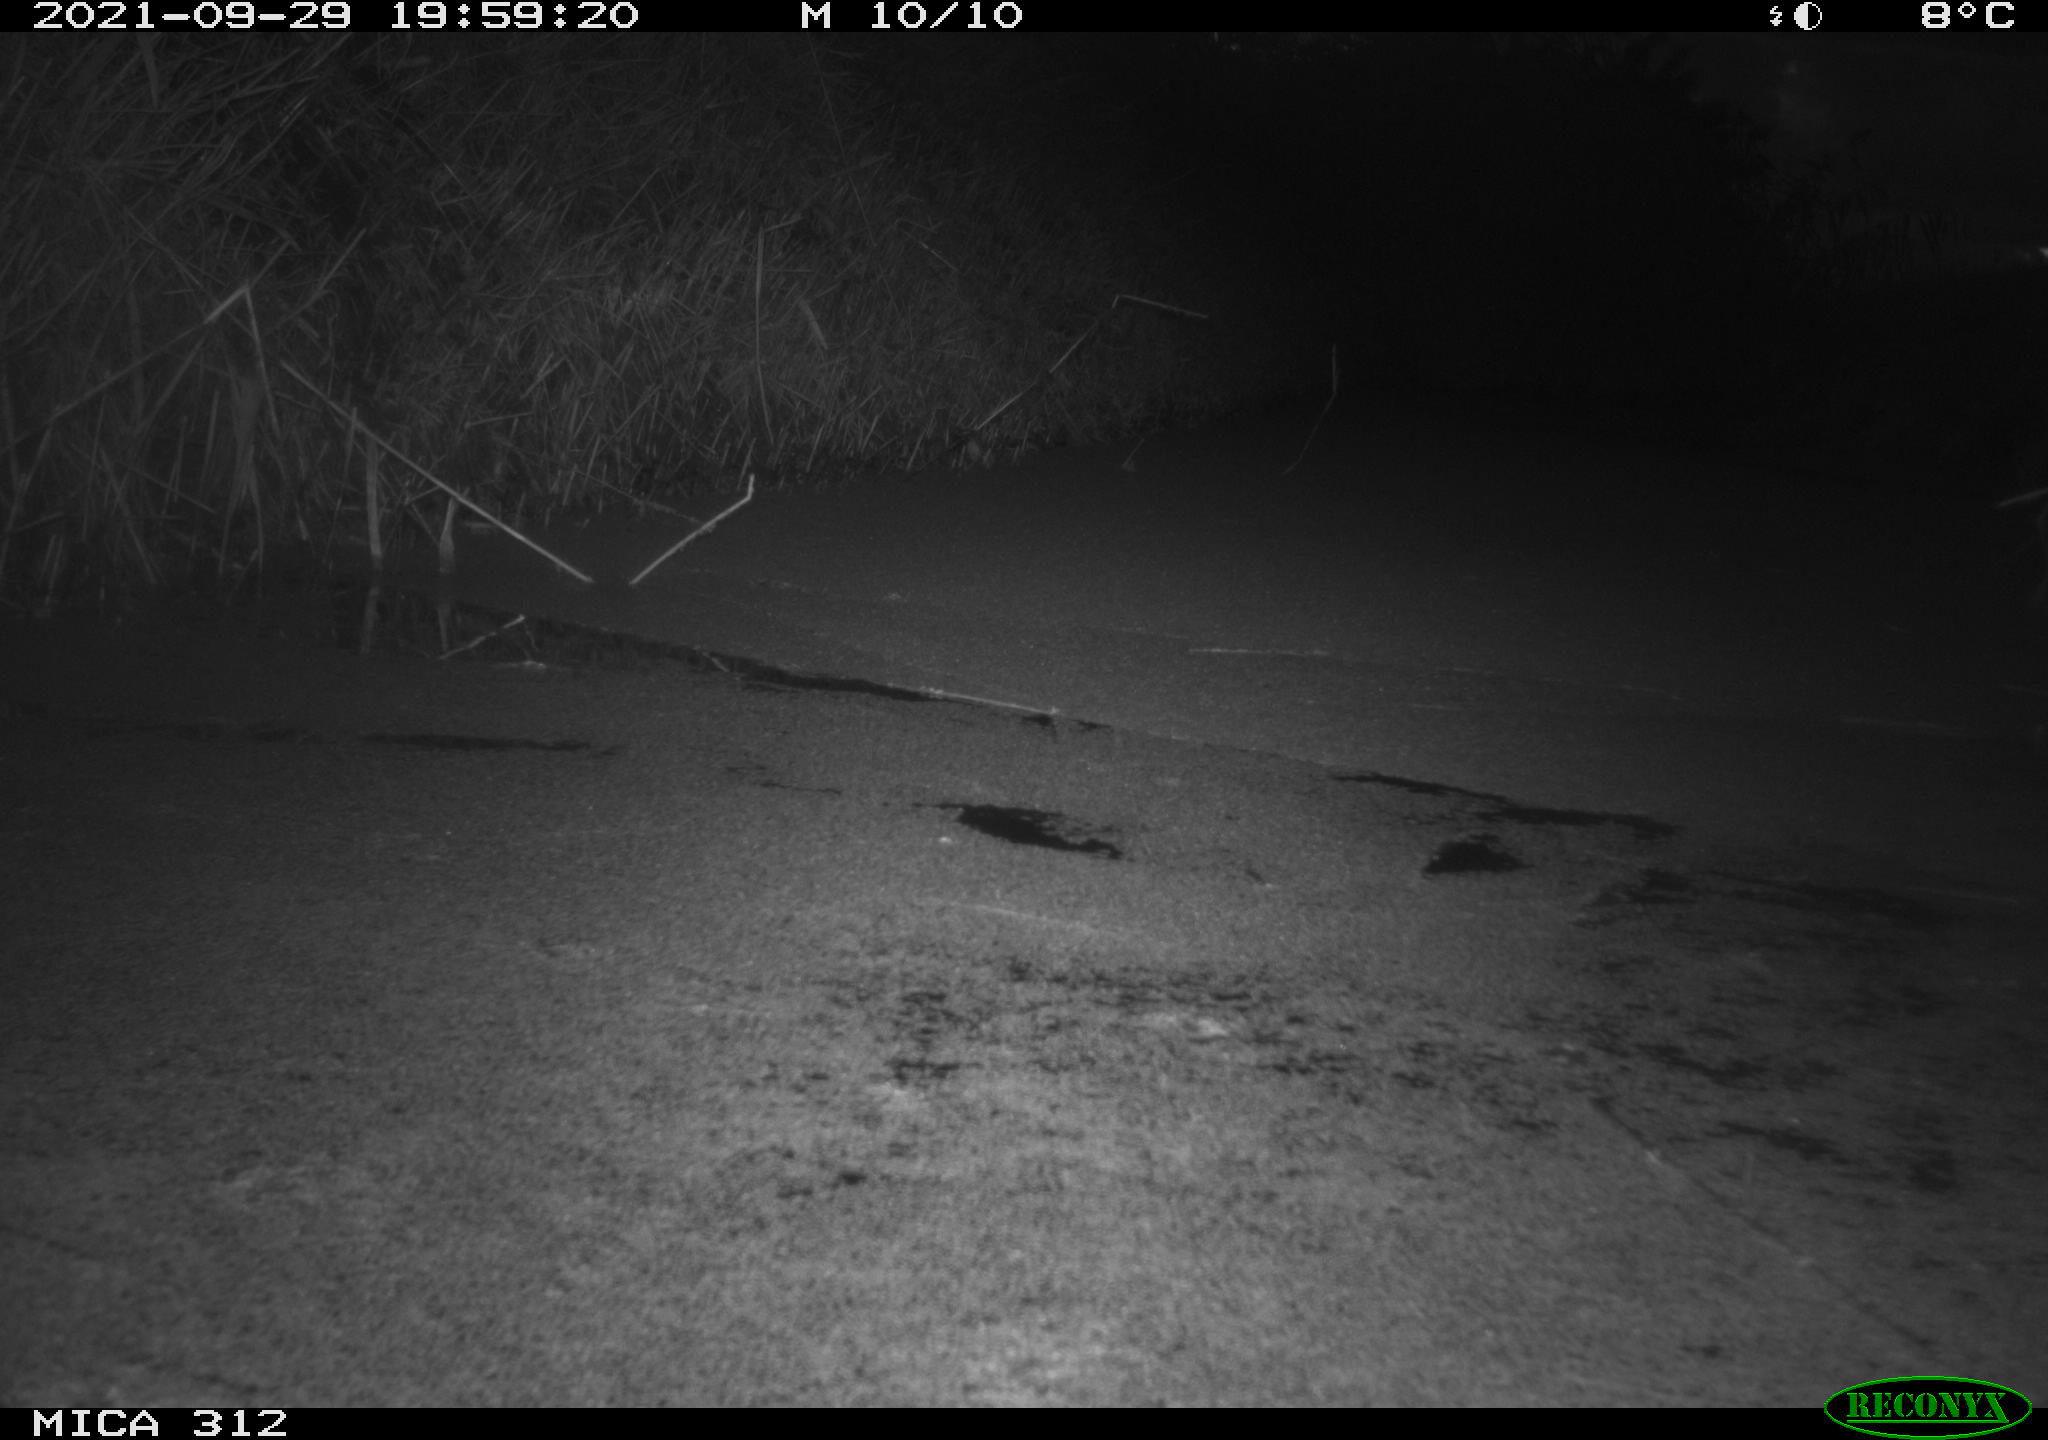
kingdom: Animalia
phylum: Chordata
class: Mammalia
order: Rodentia
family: Muridae
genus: Rattus
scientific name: Rattus norvegicus
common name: Brown rat
